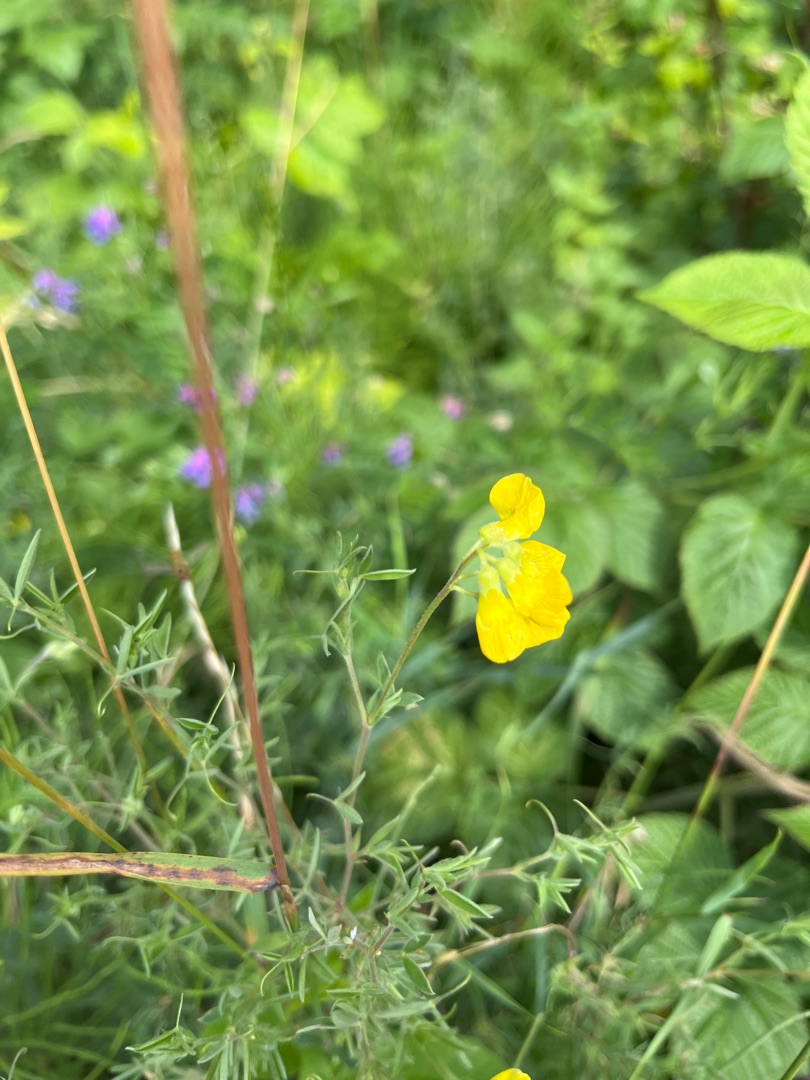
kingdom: Plantae
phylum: Tracheophyta
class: Magnoliopsida
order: Fabales
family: Fabaceae
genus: Lathyrus
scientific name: Lathyrus pratensis
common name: Gul fladbælg
